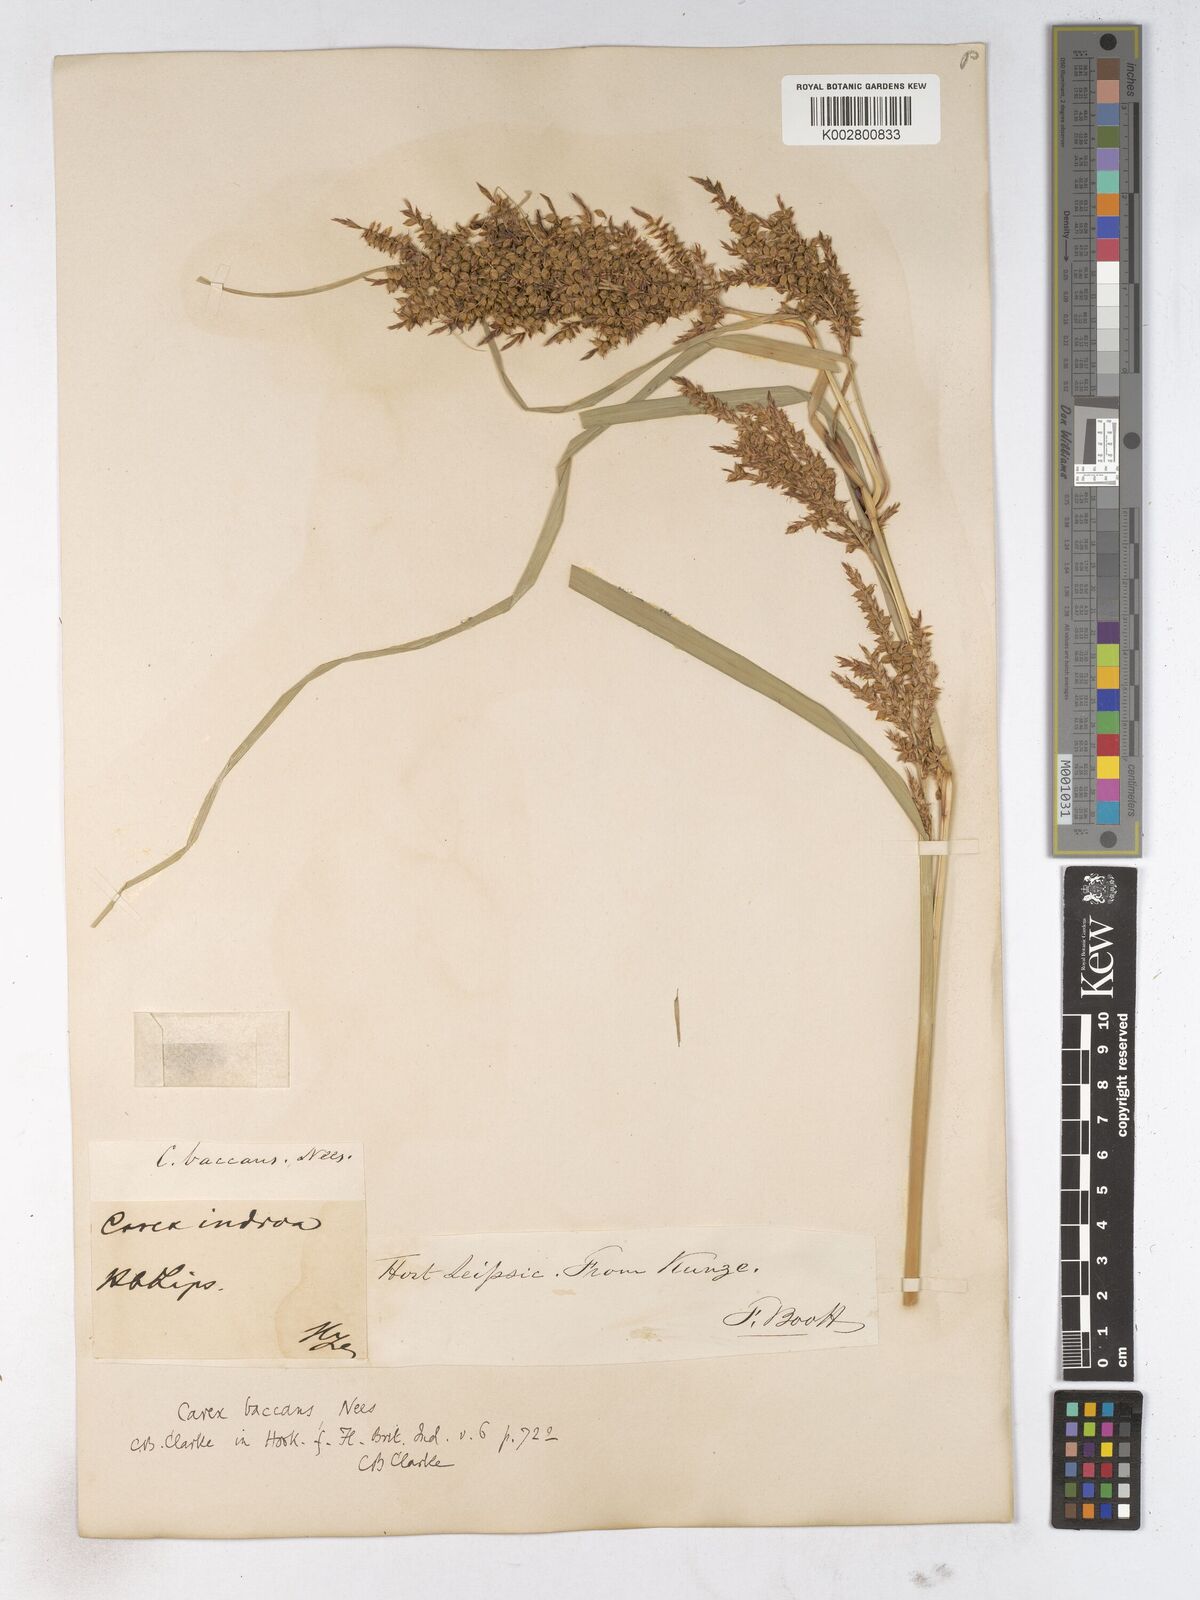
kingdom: Plantae
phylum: Tracheophyta
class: Liliopsida
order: Poales
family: Cyperaceae
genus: Carex
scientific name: Carex baccans
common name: Crimson seeded sedge
